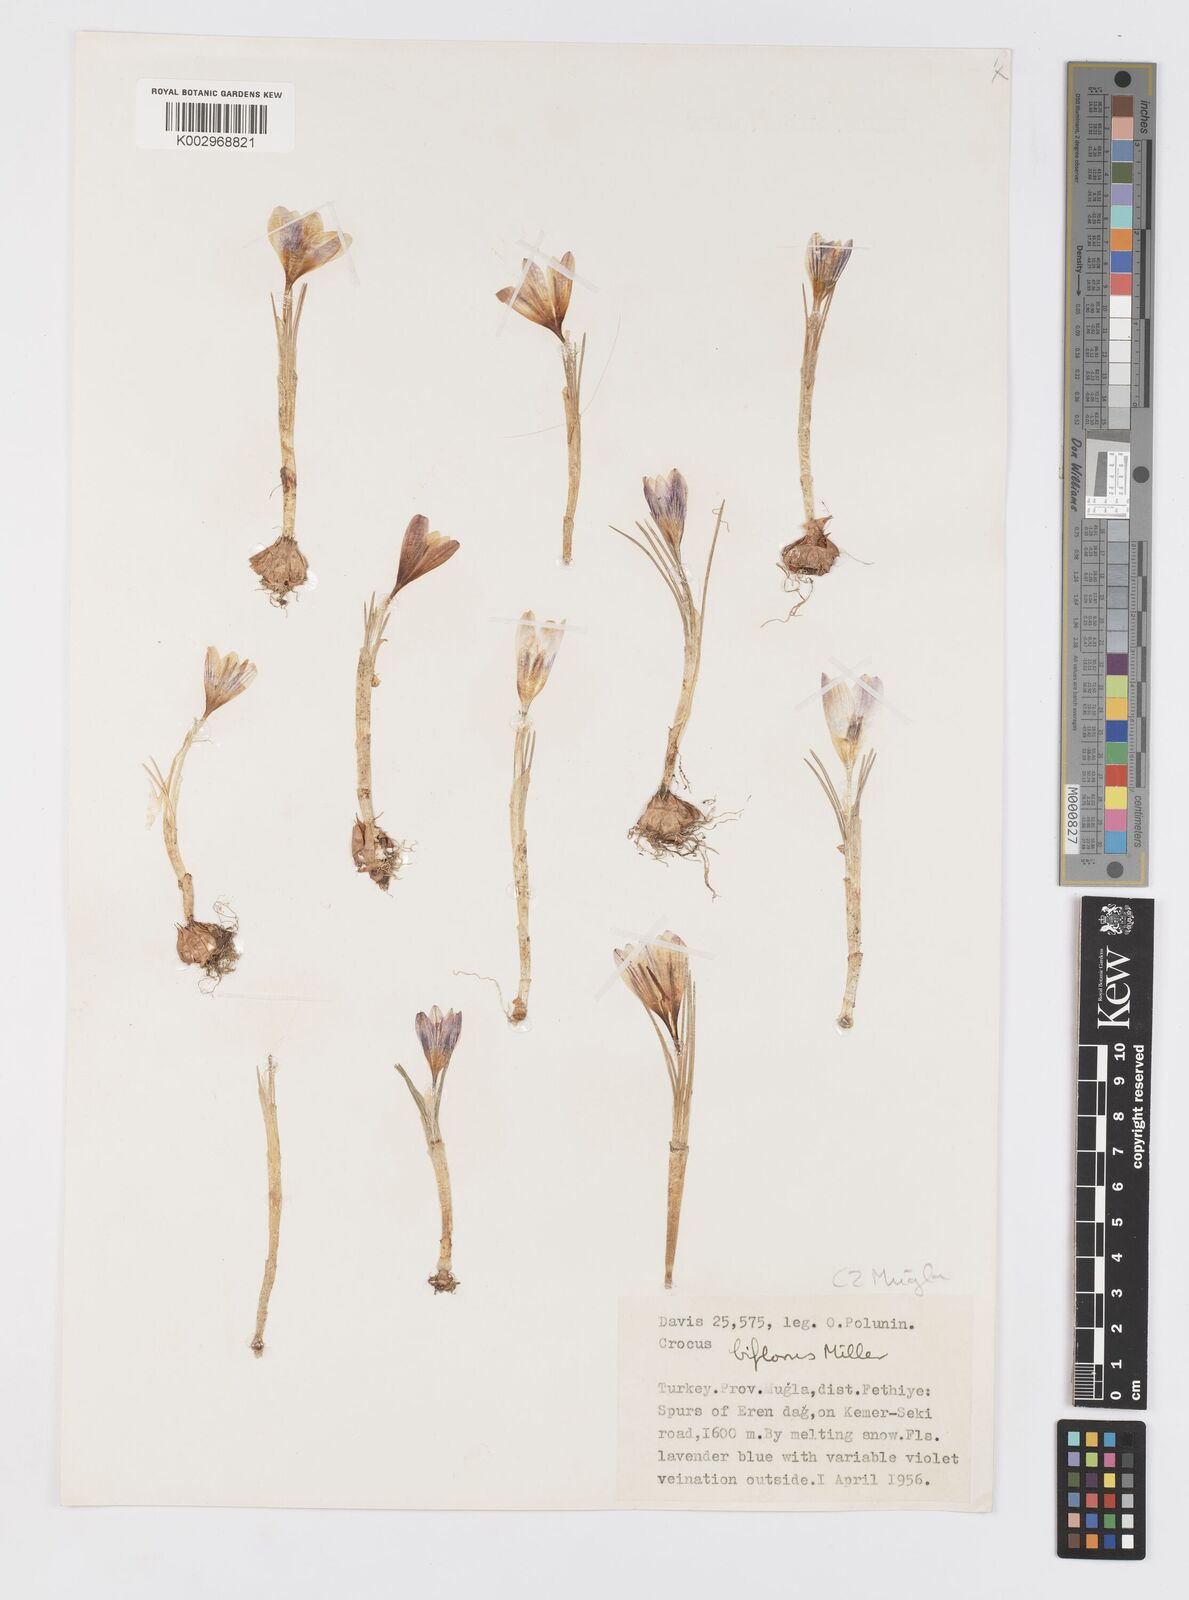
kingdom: Plantae
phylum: Tracheophyta
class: Liliopsida
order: Asparagales
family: Iridaceae
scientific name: Iridaceae
